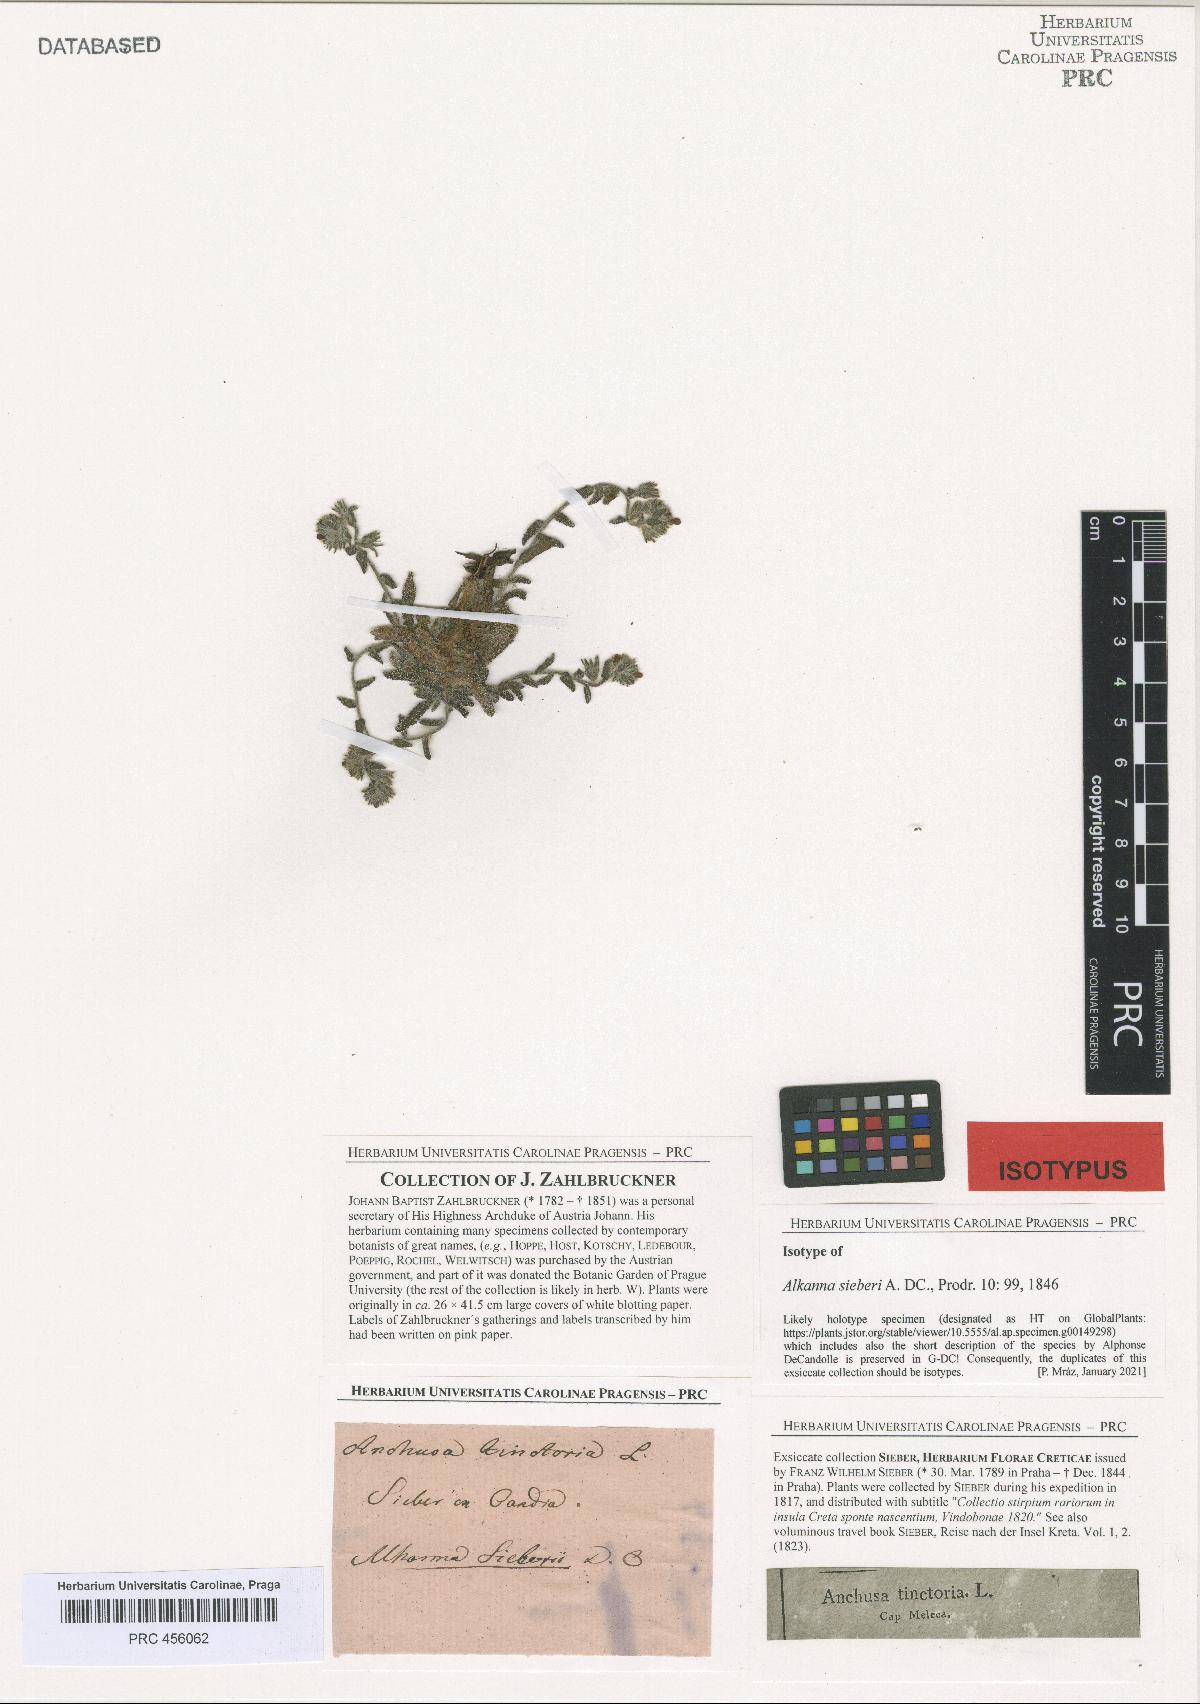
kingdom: Plantae
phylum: Tracheophyta
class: Magnoliopsida
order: Boraginales
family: Boraginaceae
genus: Alkanna
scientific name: Alkanna sieberi
